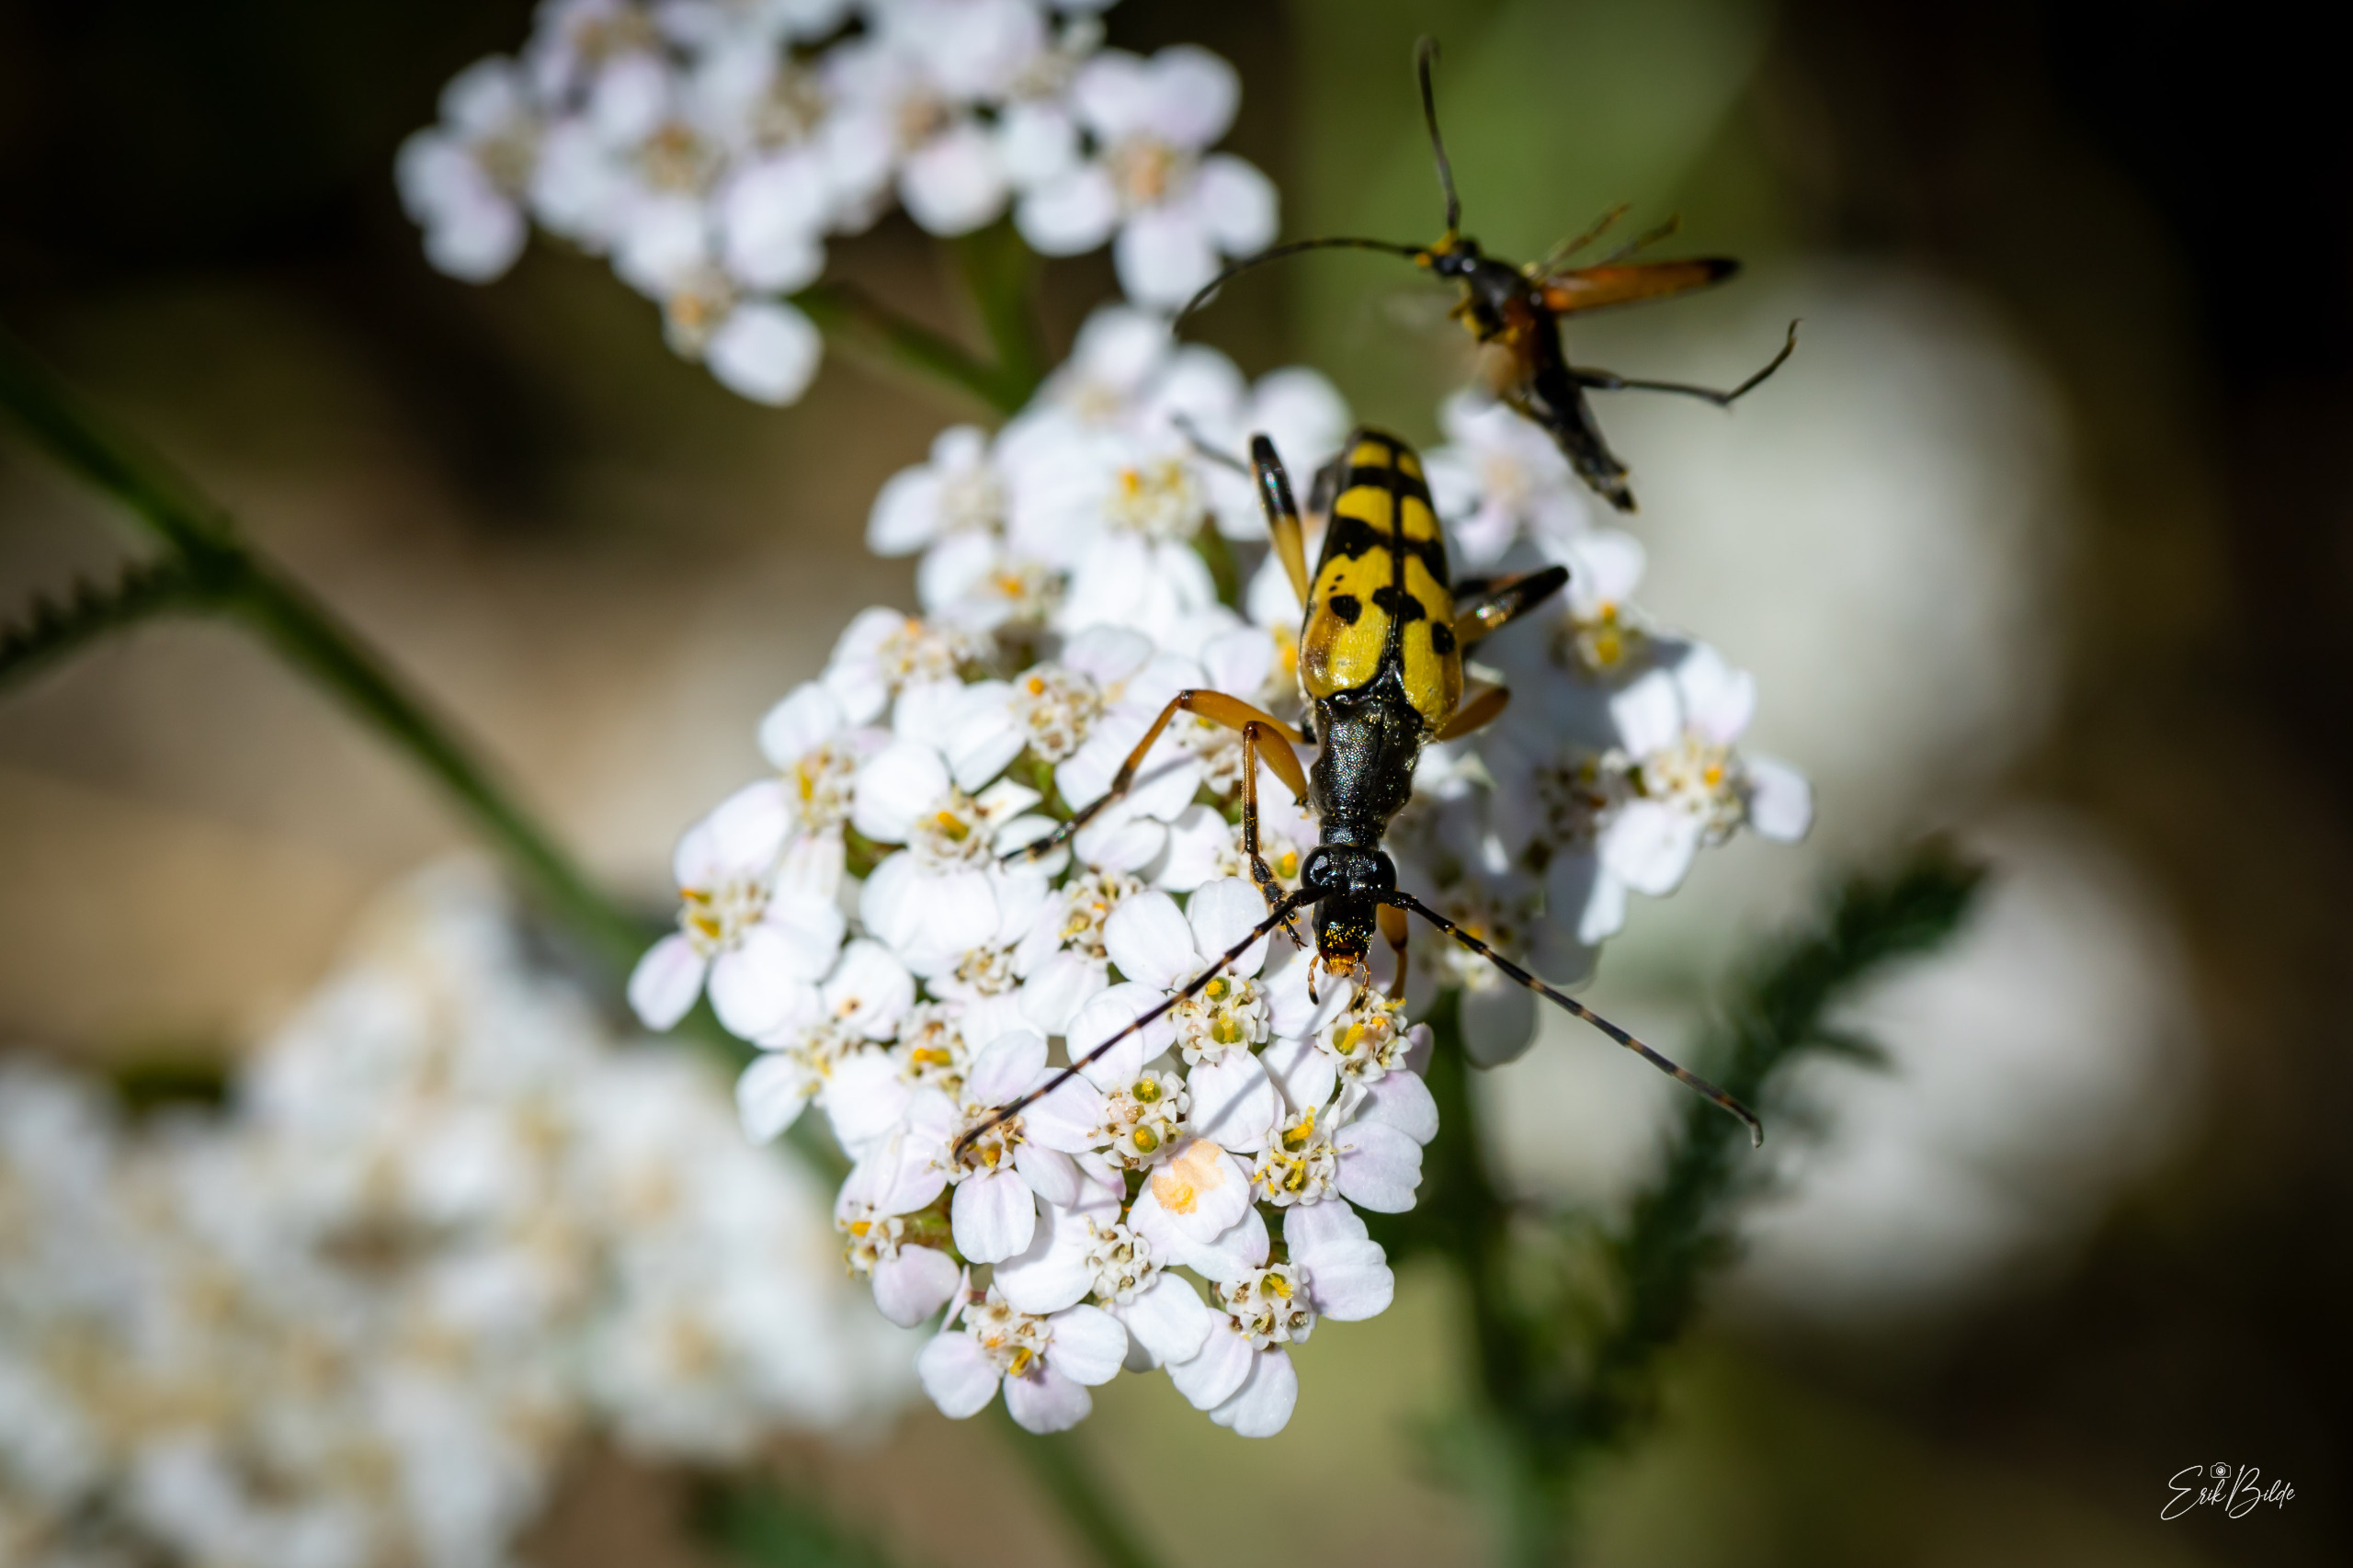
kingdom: Animalia
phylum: Arthropoda
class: Insecta
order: Coleoptera
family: Cerambycidae
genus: Rutpela
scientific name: Rutpela maculata
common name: Sydlig blomsterbuk
